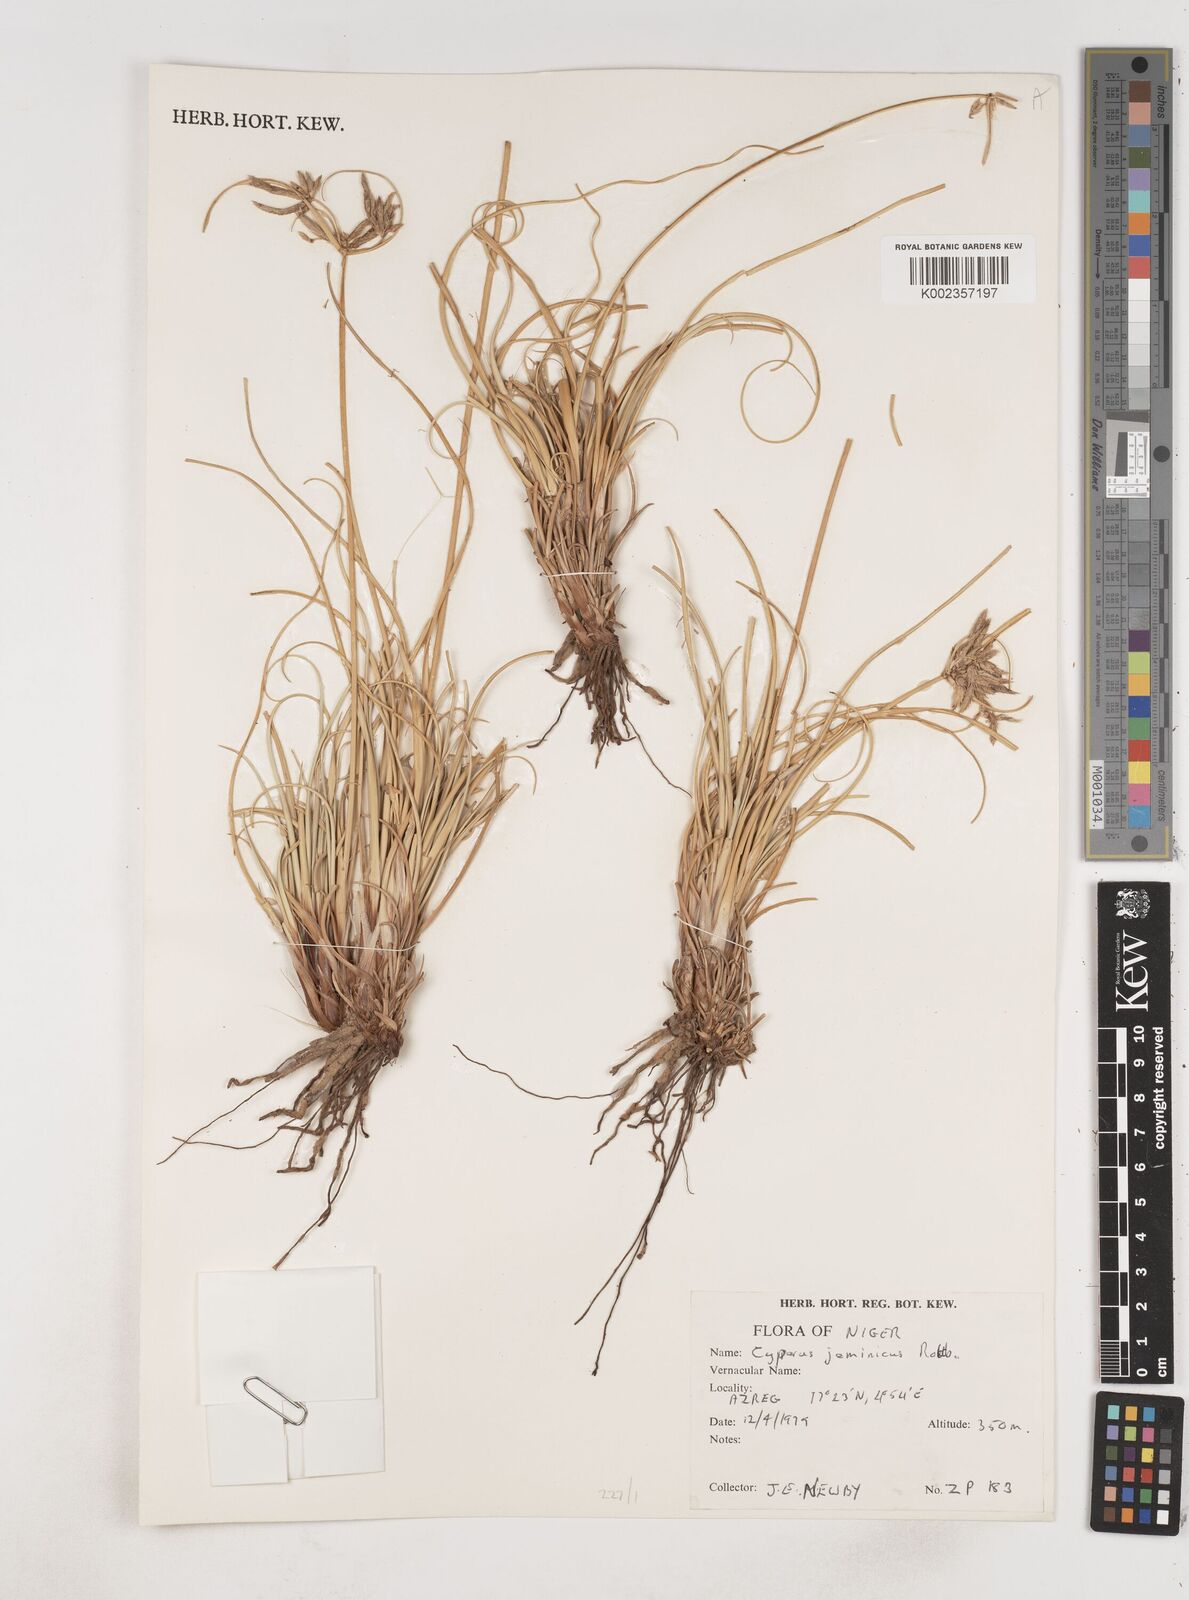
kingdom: Plantae
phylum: Tracheophyta
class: Liliopsida
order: Poales
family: Cyperaceae
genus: Cyperus
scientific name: Cyperus jeminicus
